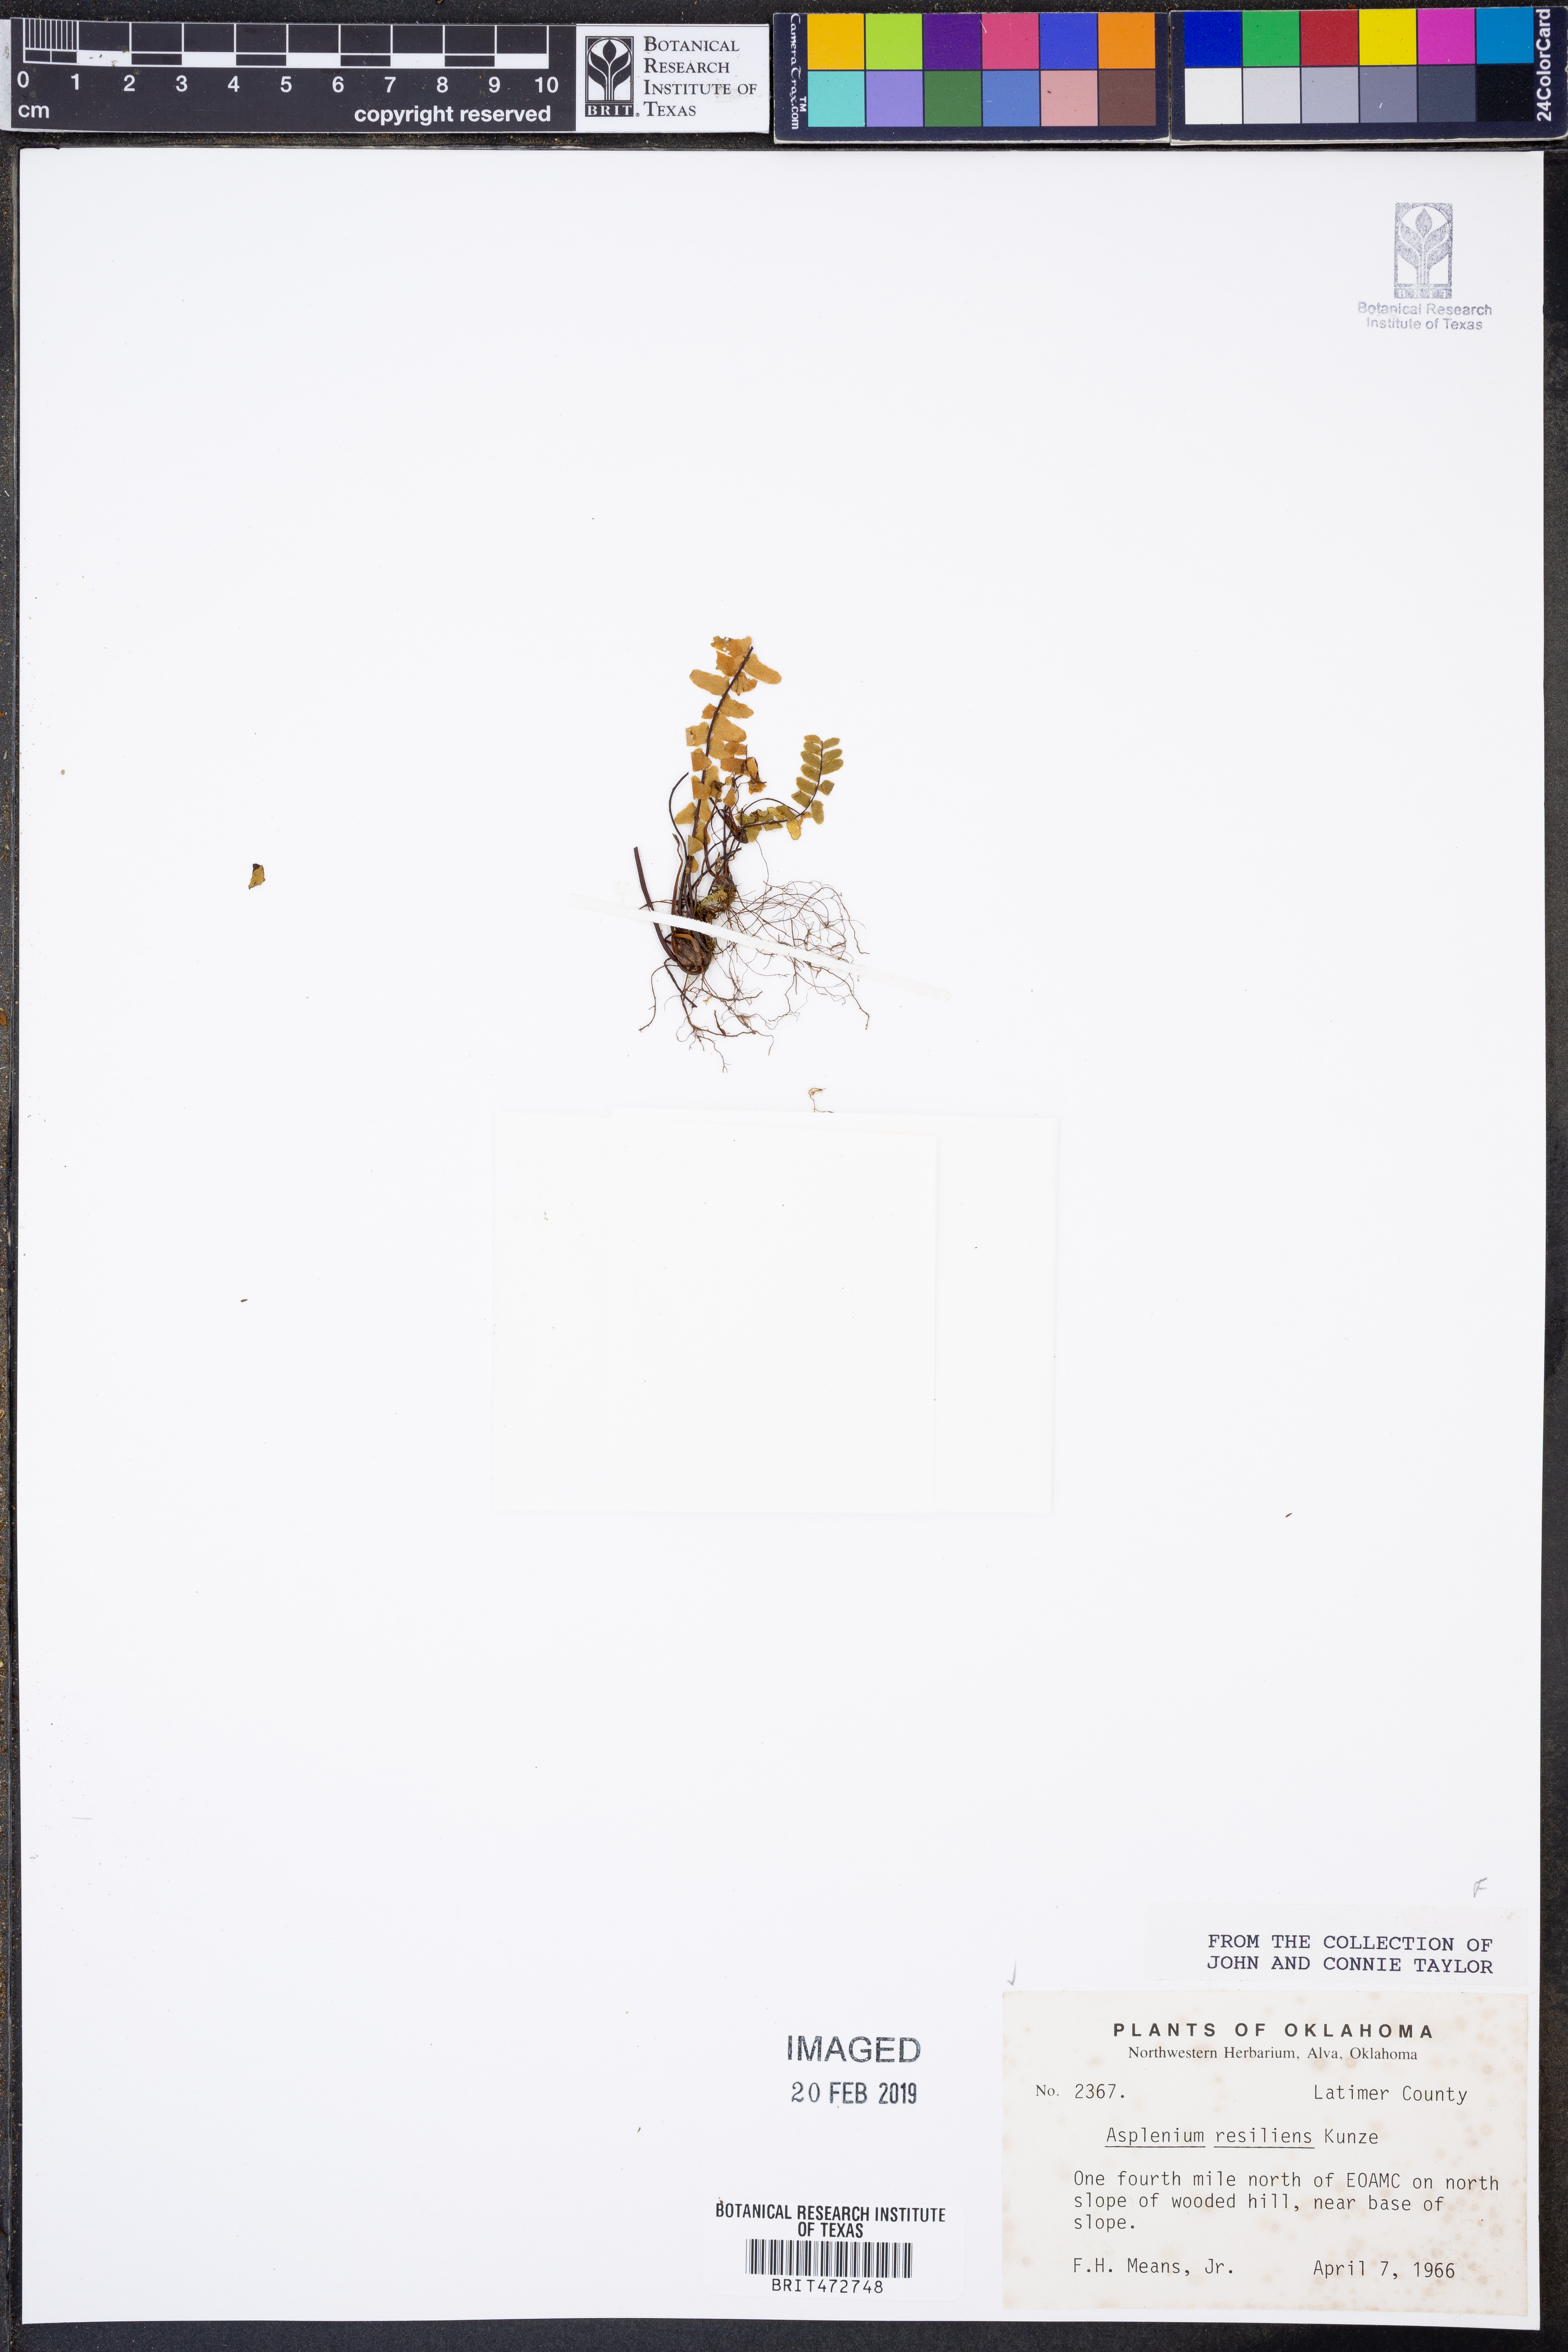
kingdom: Plantae
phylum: Tracheophyta
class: Polypodiopsida
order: Polypodiales
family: Aspleniaceae
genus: Asplenium
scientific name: Asplenium resiliens
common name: Blackstem spleenwort
